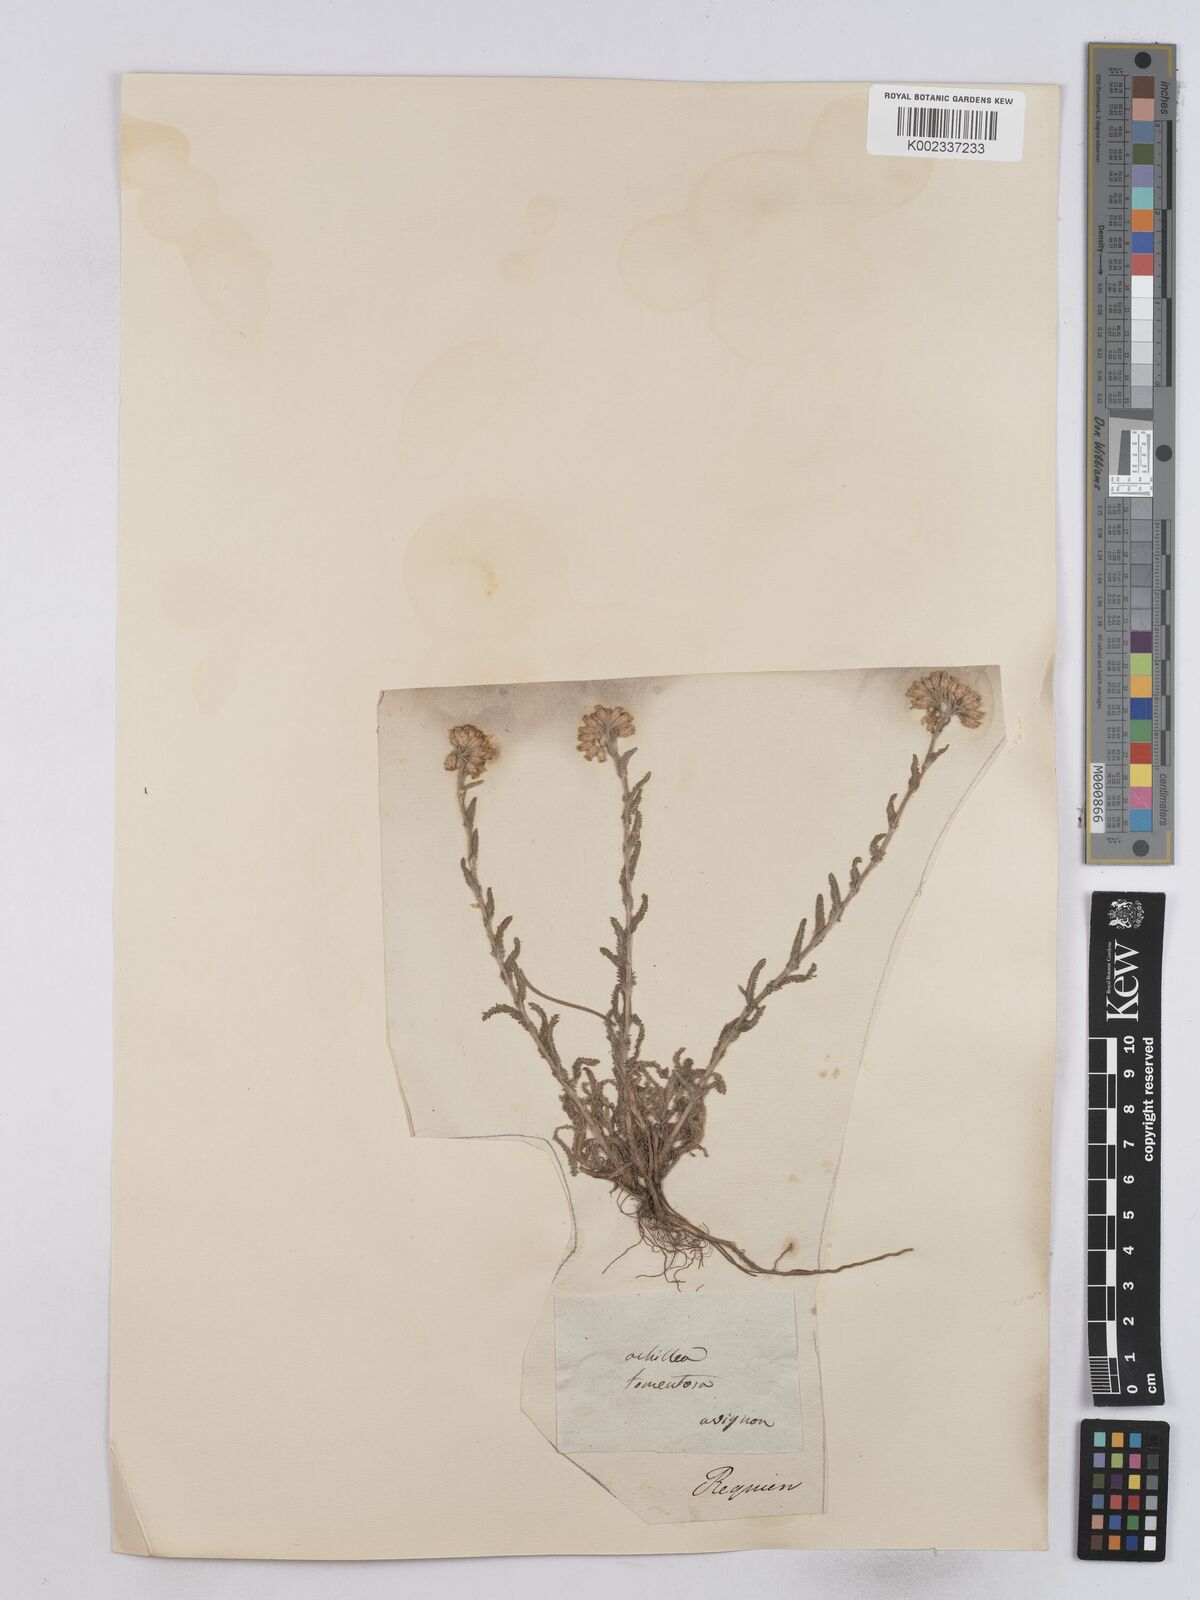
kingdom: Plantae
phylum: Tracheophyta
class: Magnoliopsida
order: Asterales
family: Asteraceae
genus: Achillea
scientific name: Achillea tomentosa
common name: Yellow milfoil
